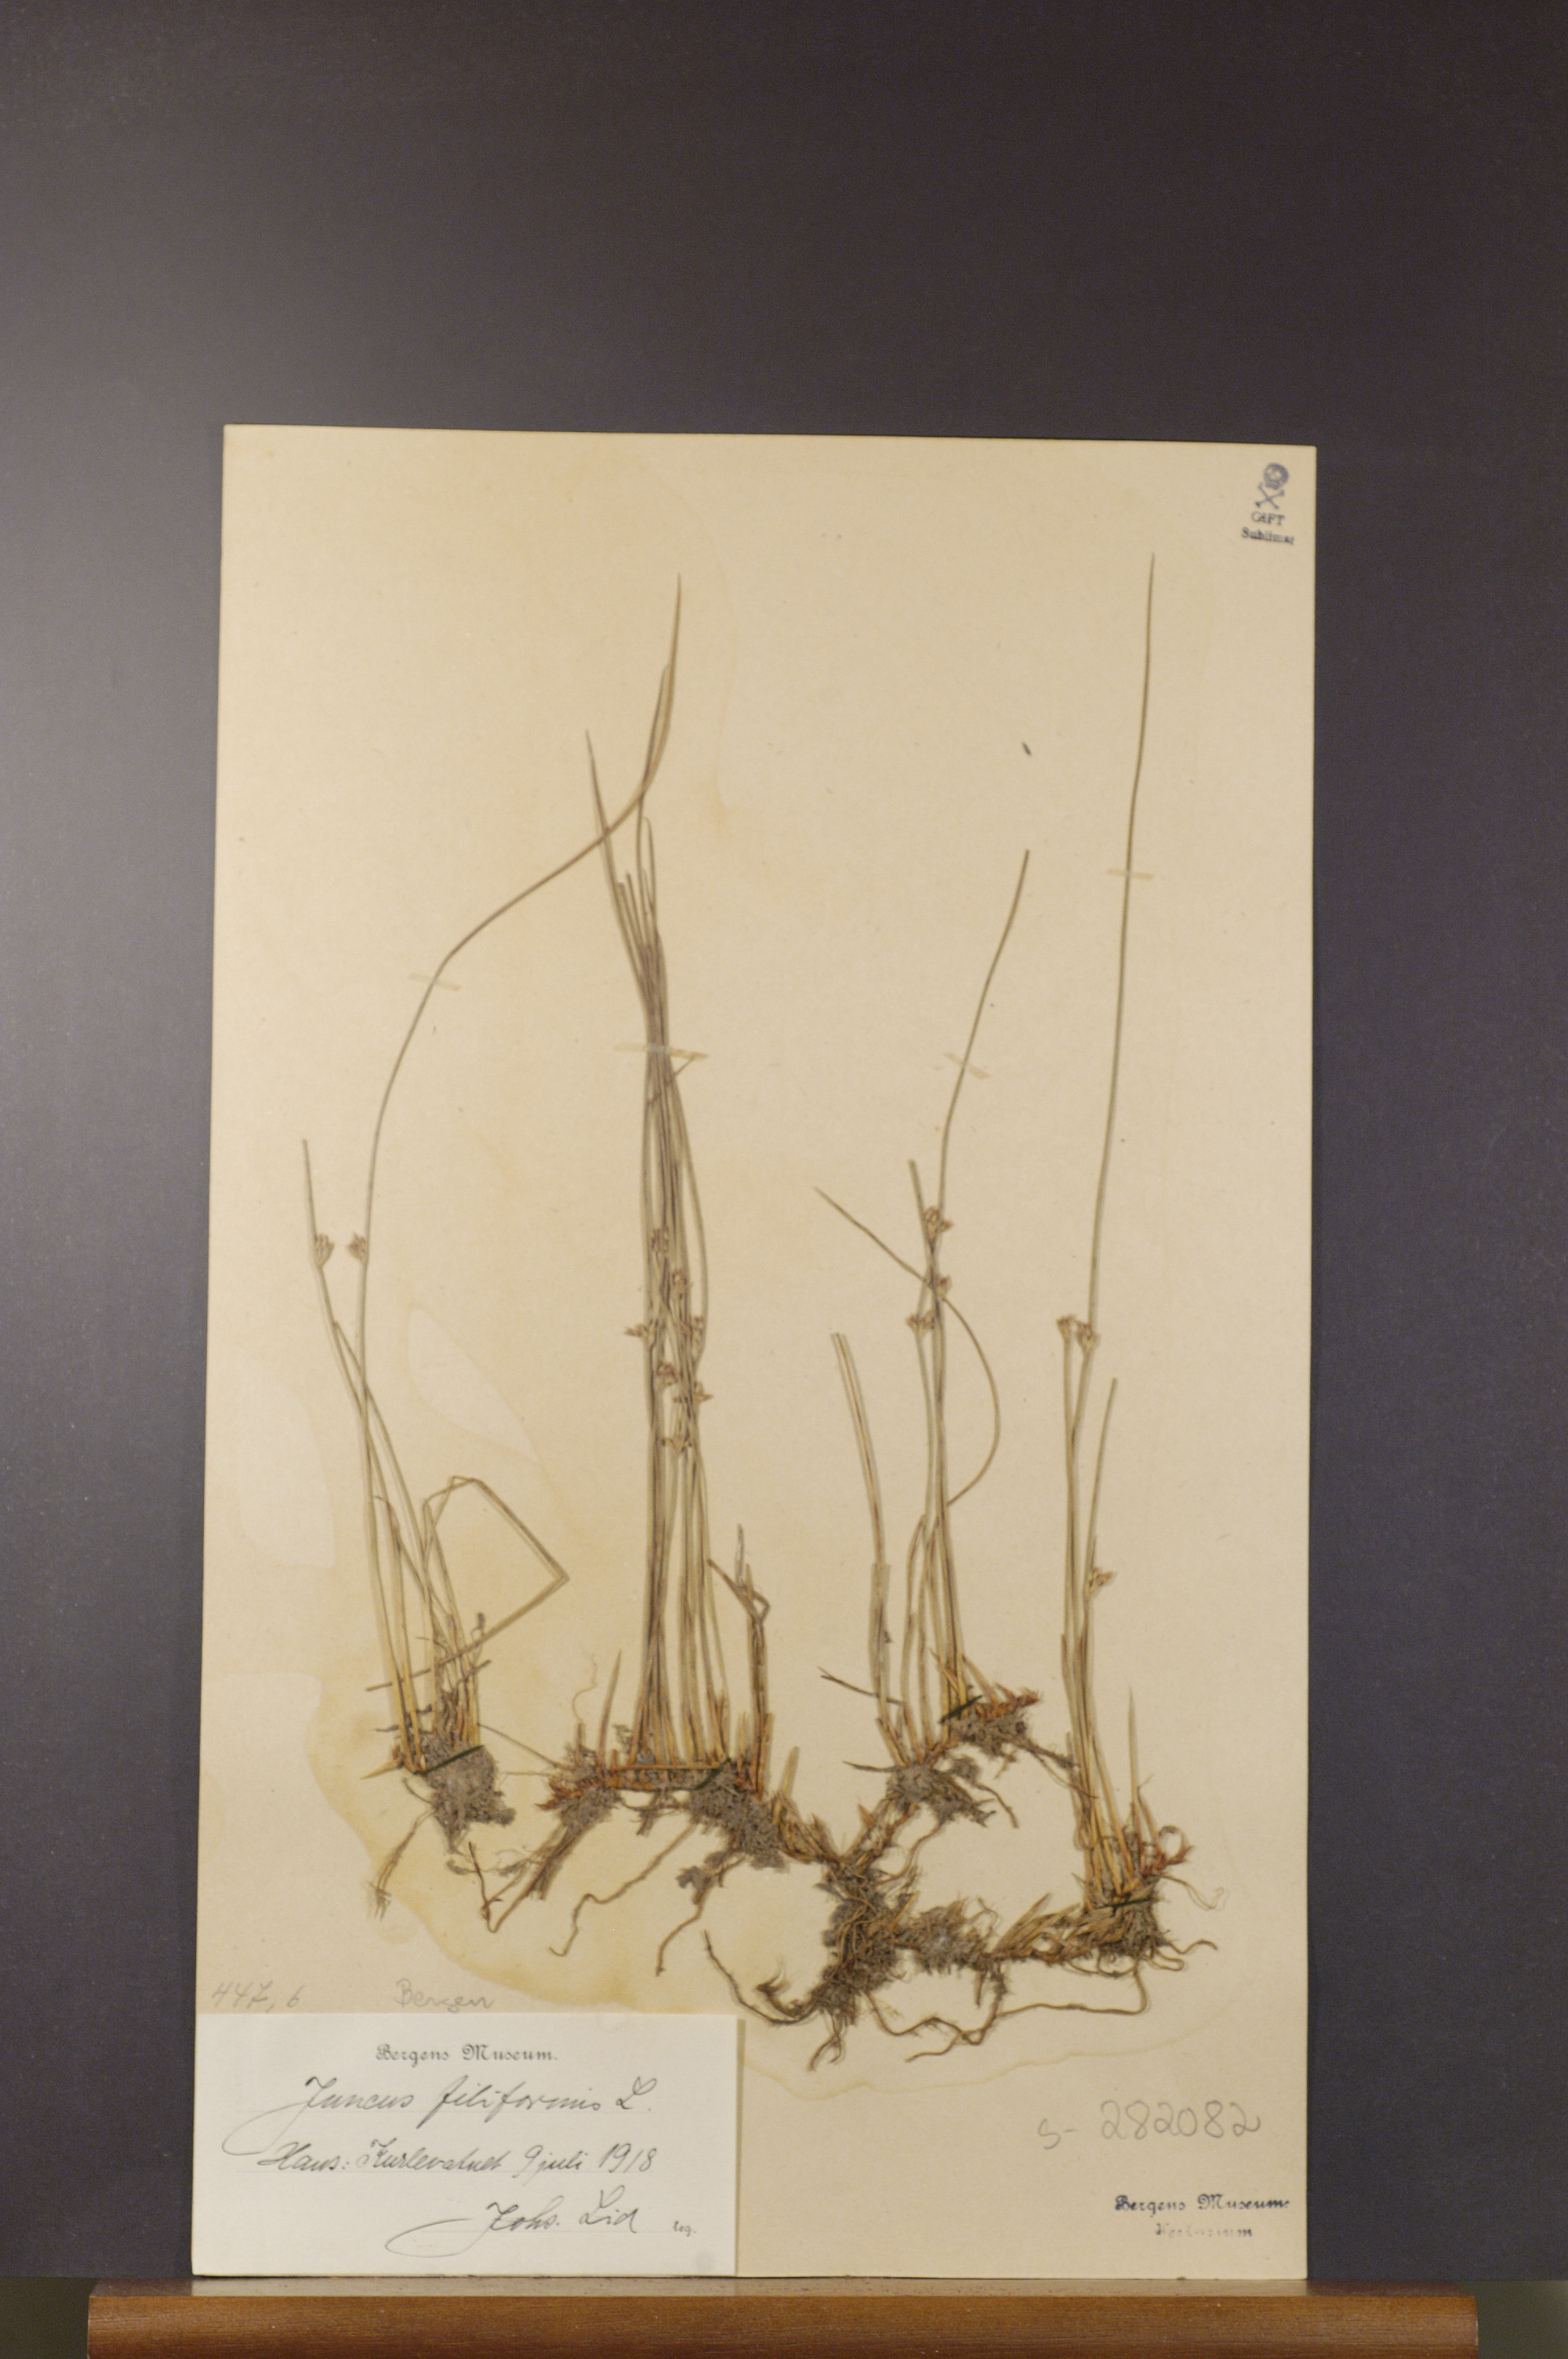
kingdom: Plantae
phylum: Tracheophyta
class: Liliopsida
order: Poales
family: Juncaceae
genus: Juncus
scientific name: Juncus filiformis
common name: Thread rush
